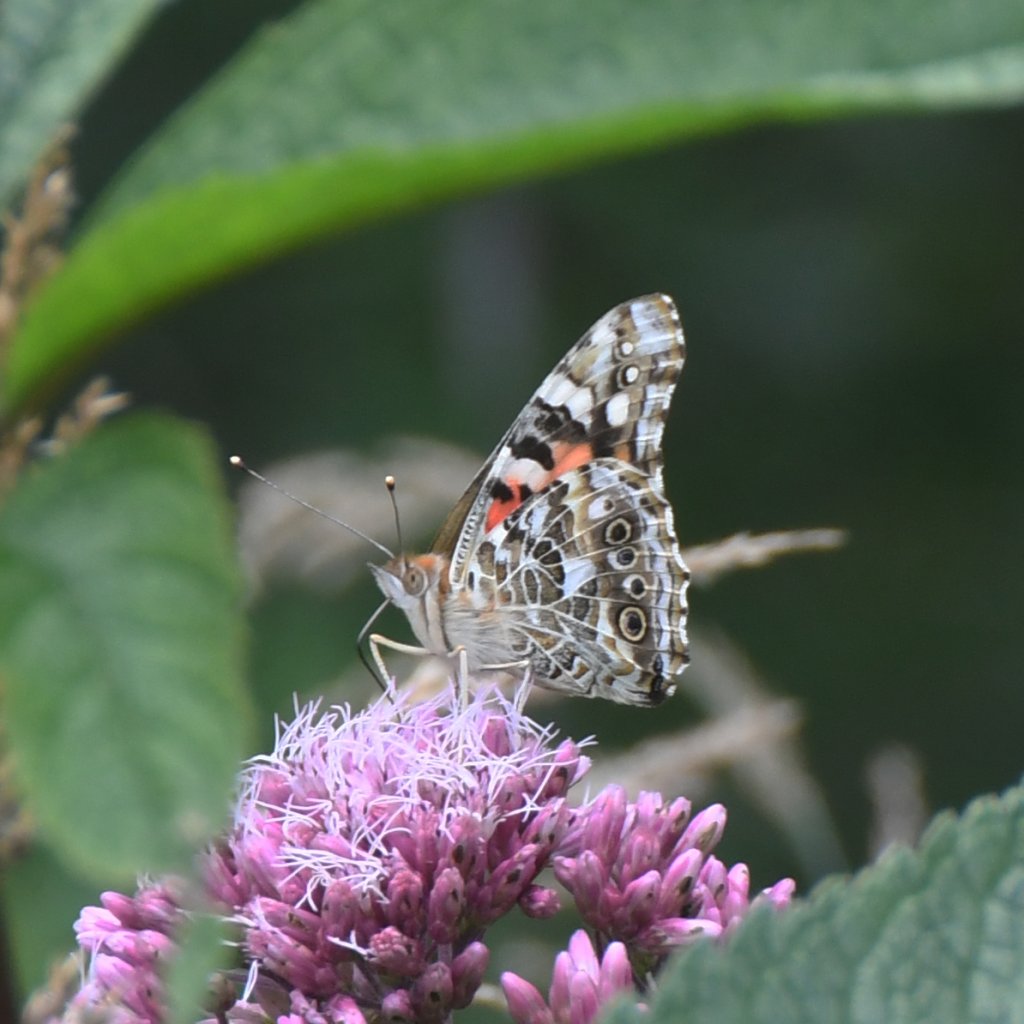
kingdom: Animalia
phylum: Arthropoda
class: Insecta
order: Lepidoptera
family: Nymphalidae
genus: Vanessa
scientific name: Vanessa cardui
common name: Painted Lady
